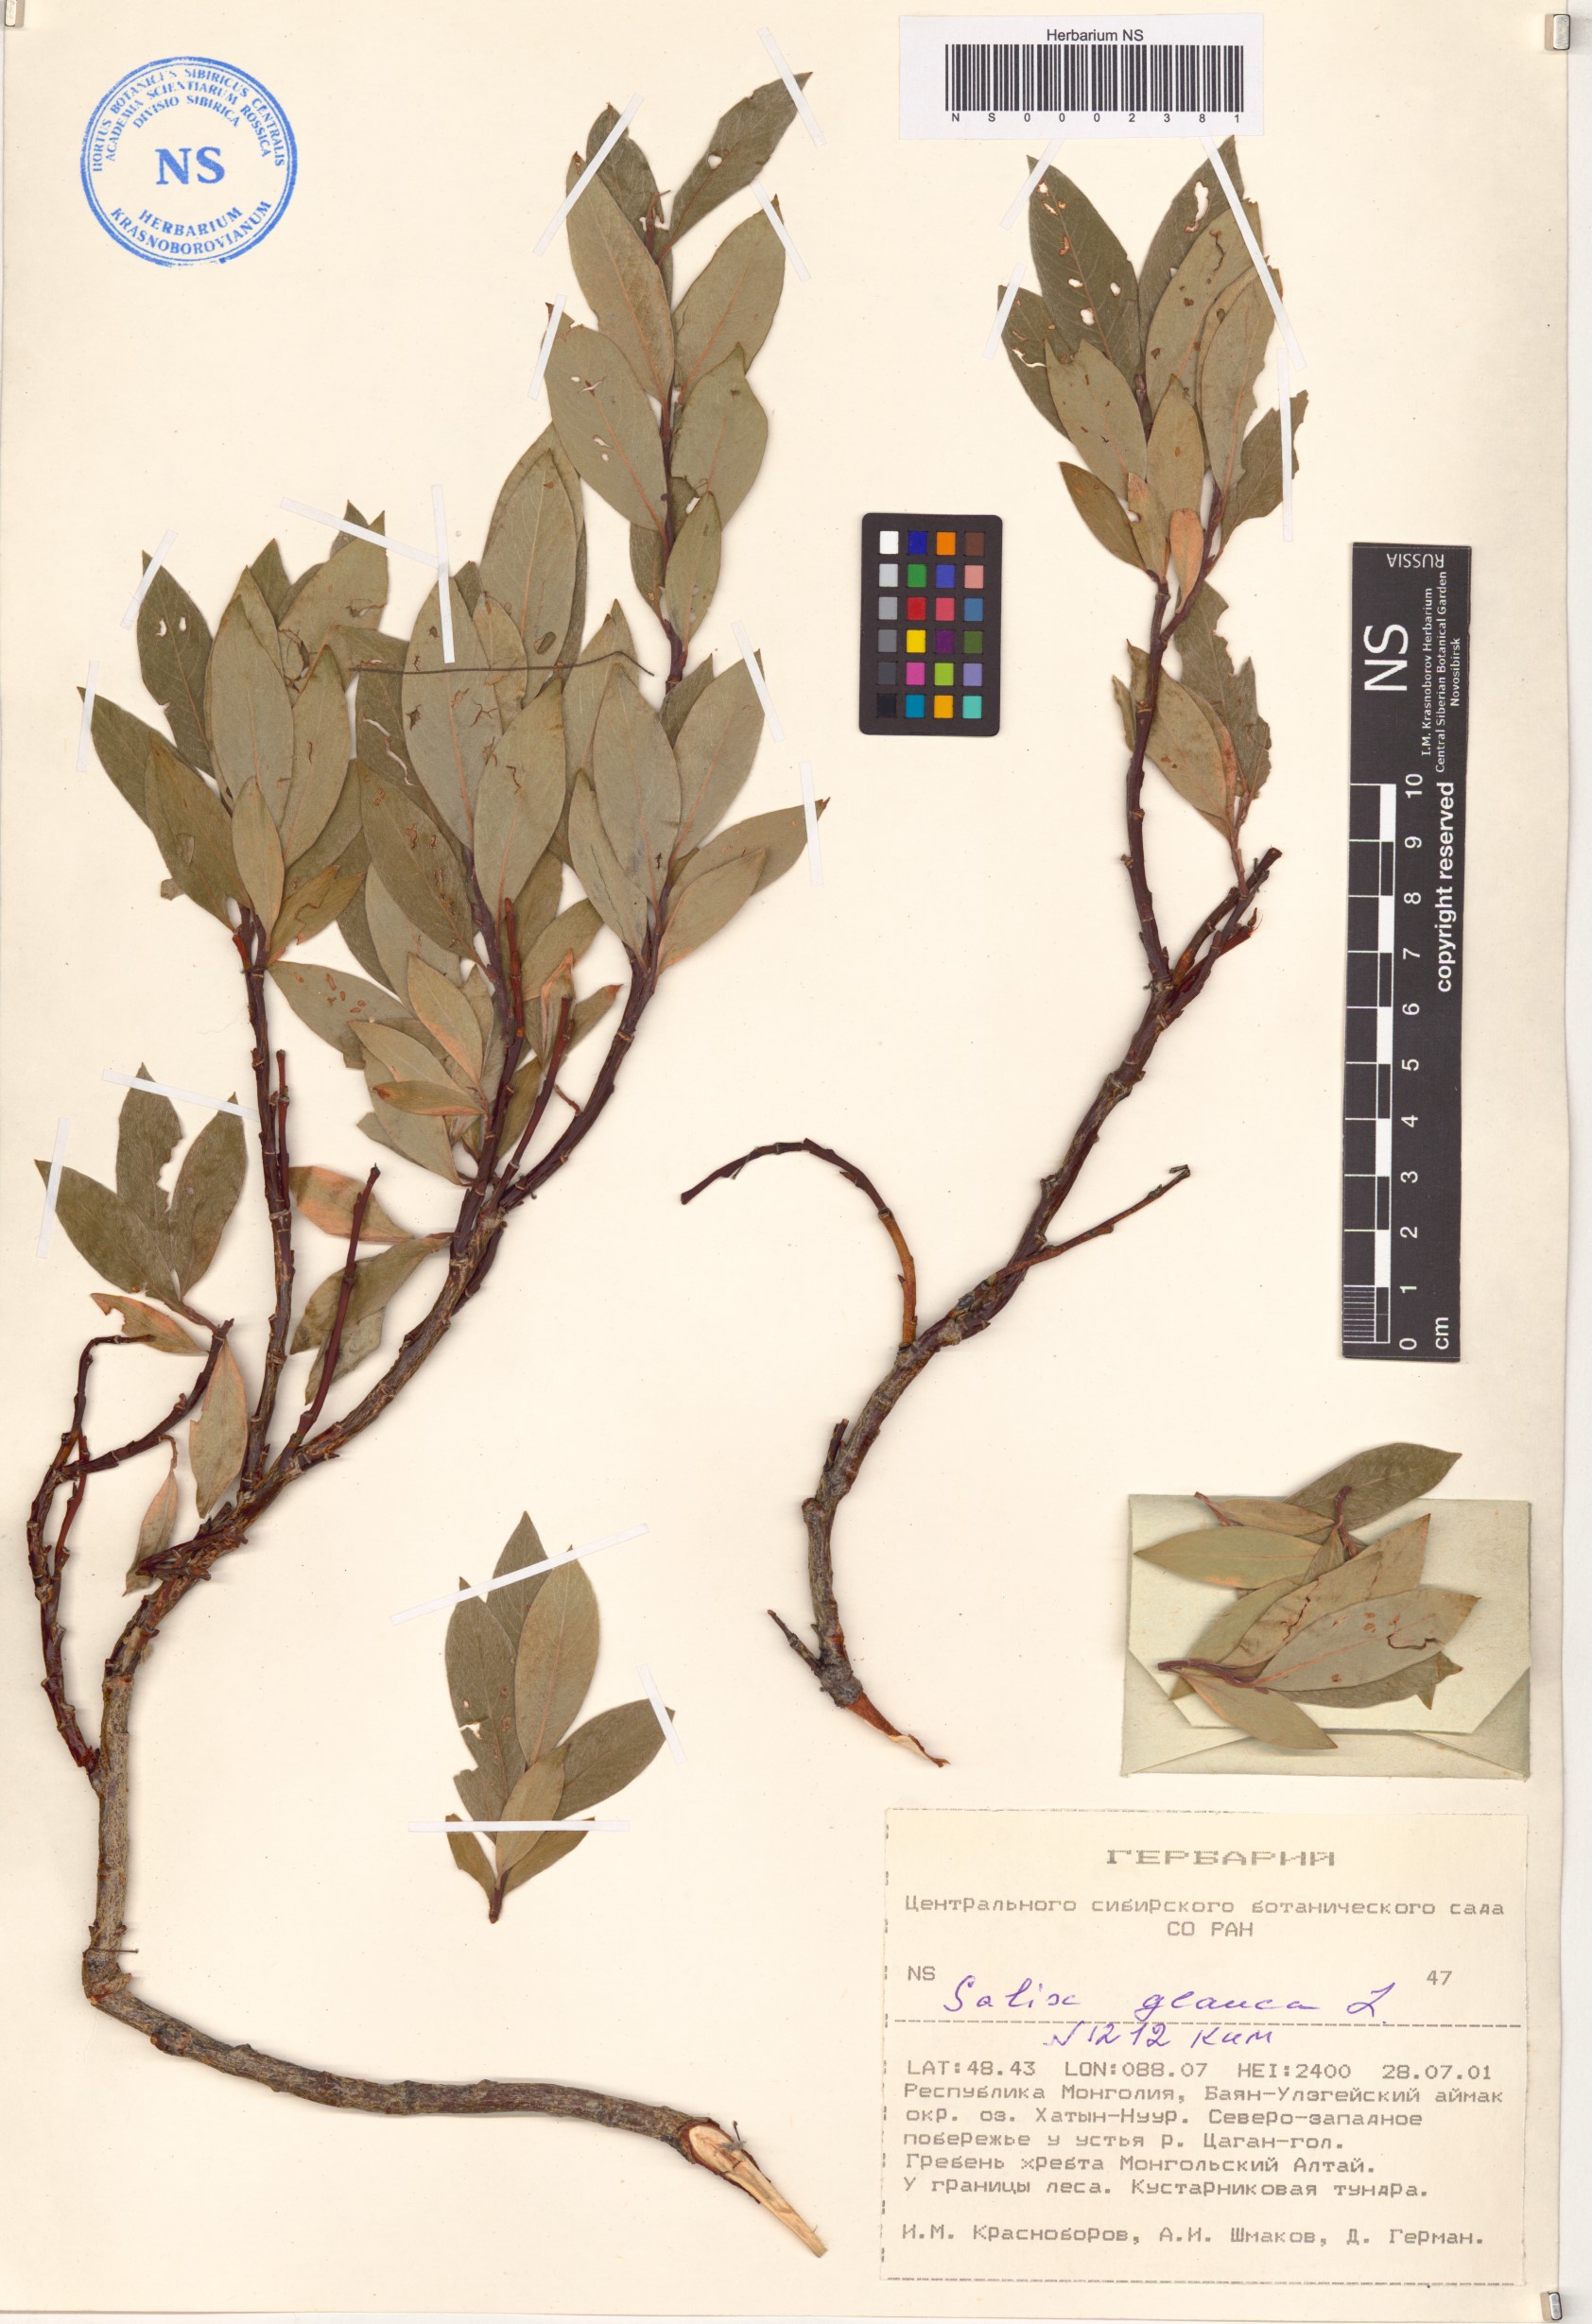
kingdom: Plantae
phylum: Tracheophyta
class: Magnoliopsida
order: Malpighiales
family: Salicaceae
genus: Salix
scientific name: Salix glauca
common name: Glaucous willow
